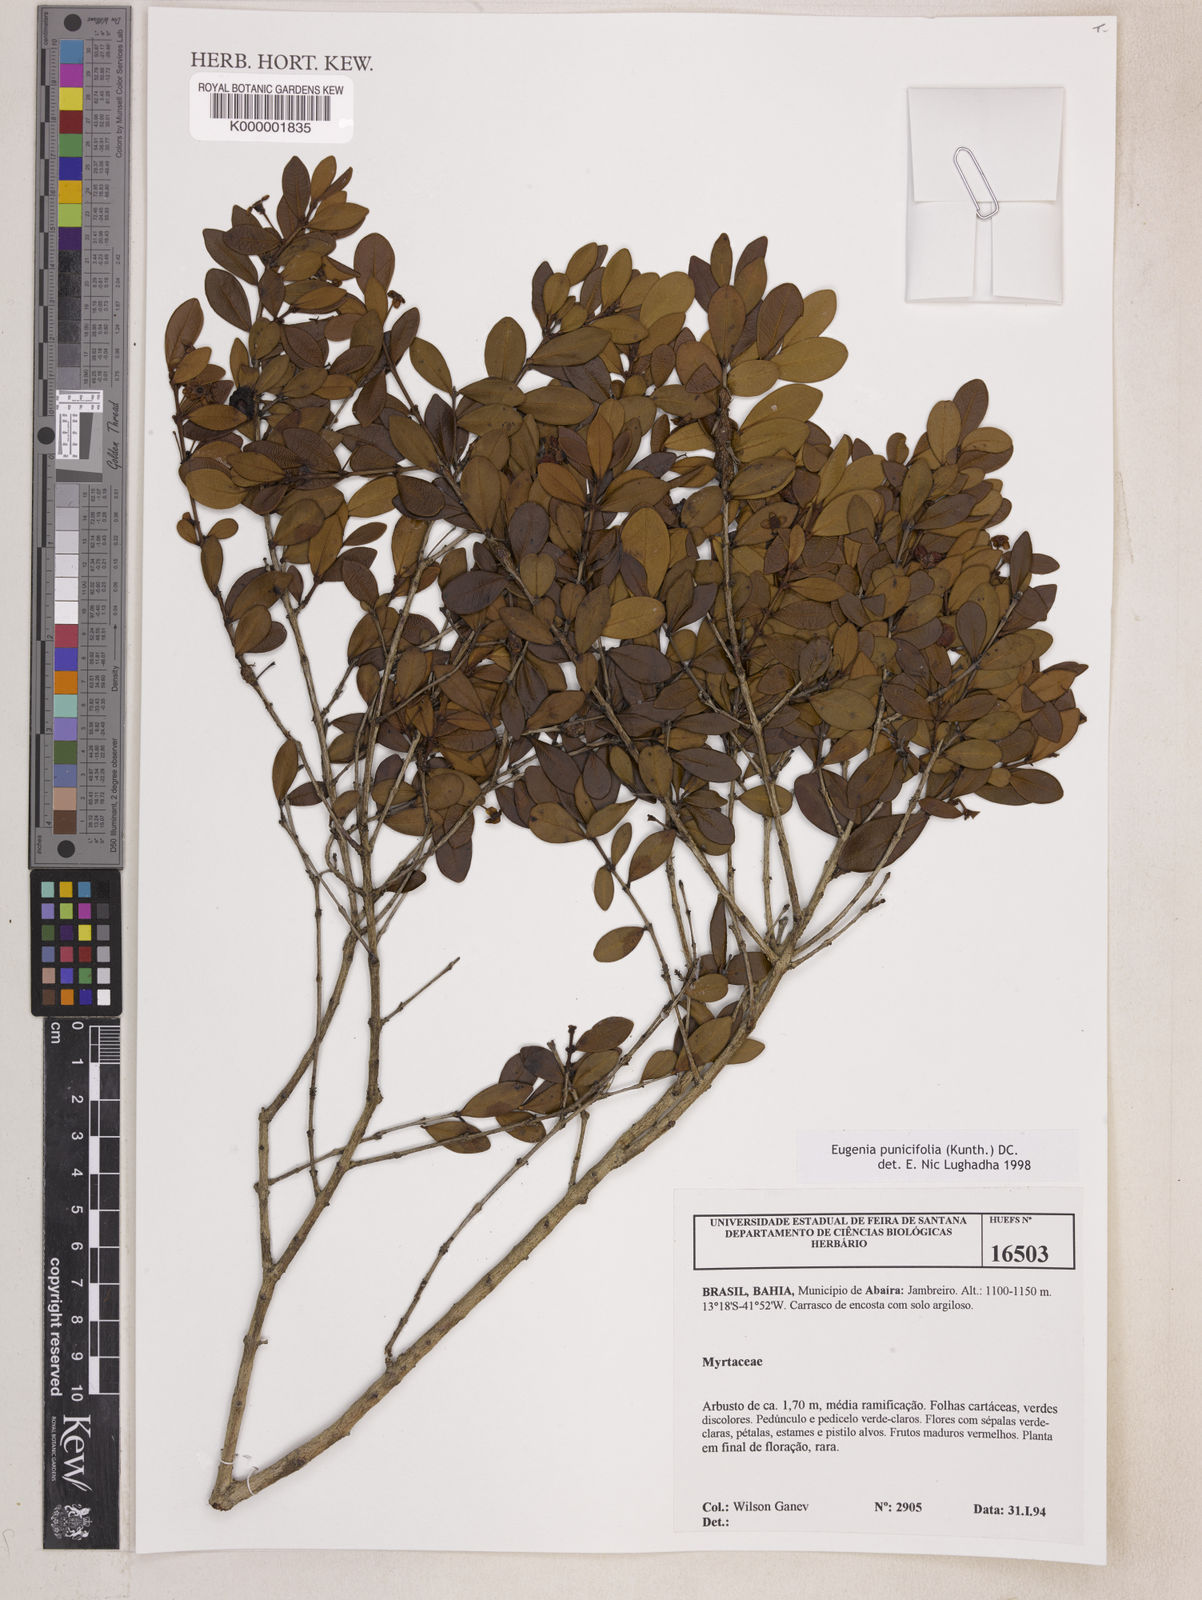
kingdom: Plantae
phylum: Tracheophyta
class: Magnoliopsida
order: Myrtales
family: Myrtaceae
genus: Eugenia
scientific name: Eugenia punicifolia
